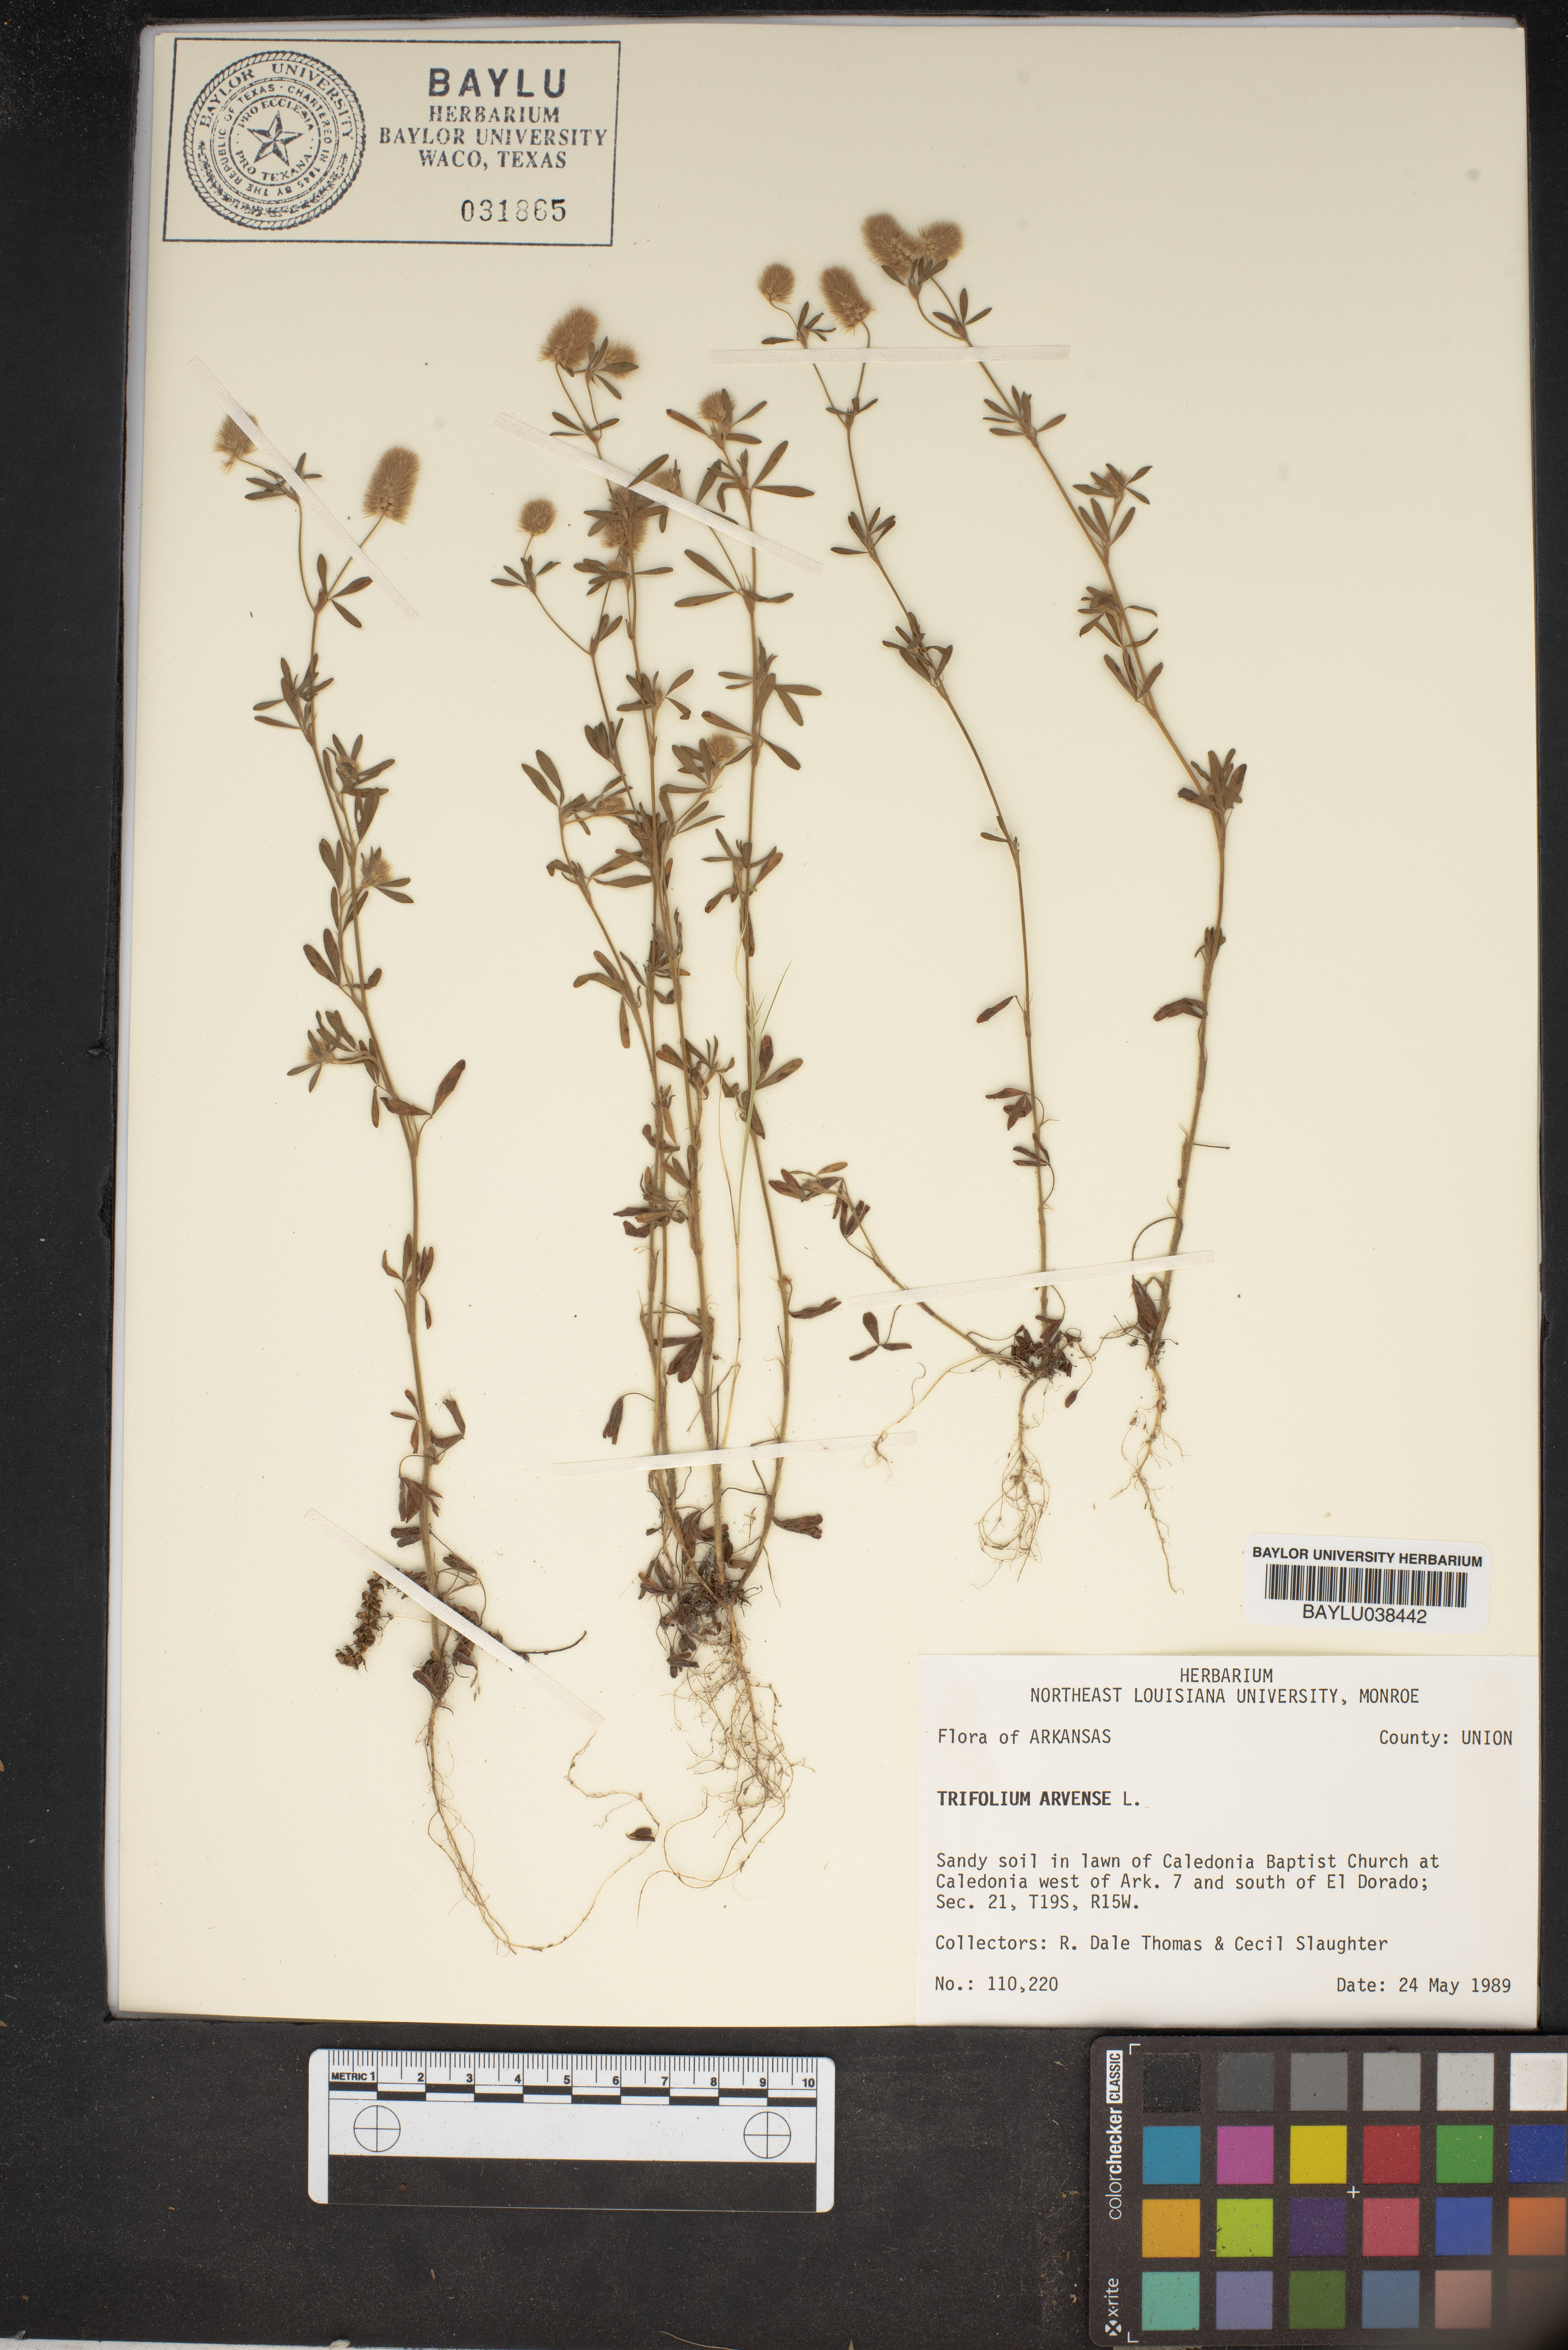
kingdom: Plantae
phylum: Tracheophyta
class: Magnoliopsida
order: Fabales
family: Fabaceae
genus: Trifolium
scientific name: Trifolium arvense
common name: Hare's-foot clover
